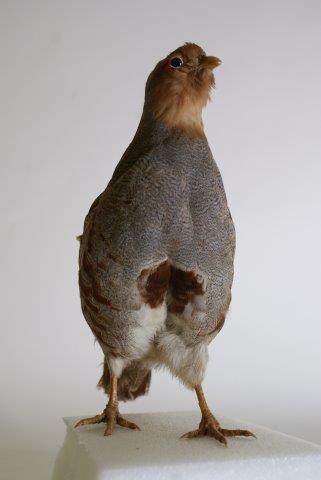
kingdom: Animalia
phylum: Chordata
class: Aves
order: Galliformes
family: Phasianidae
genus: Perdix
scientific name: Perdix perdix
